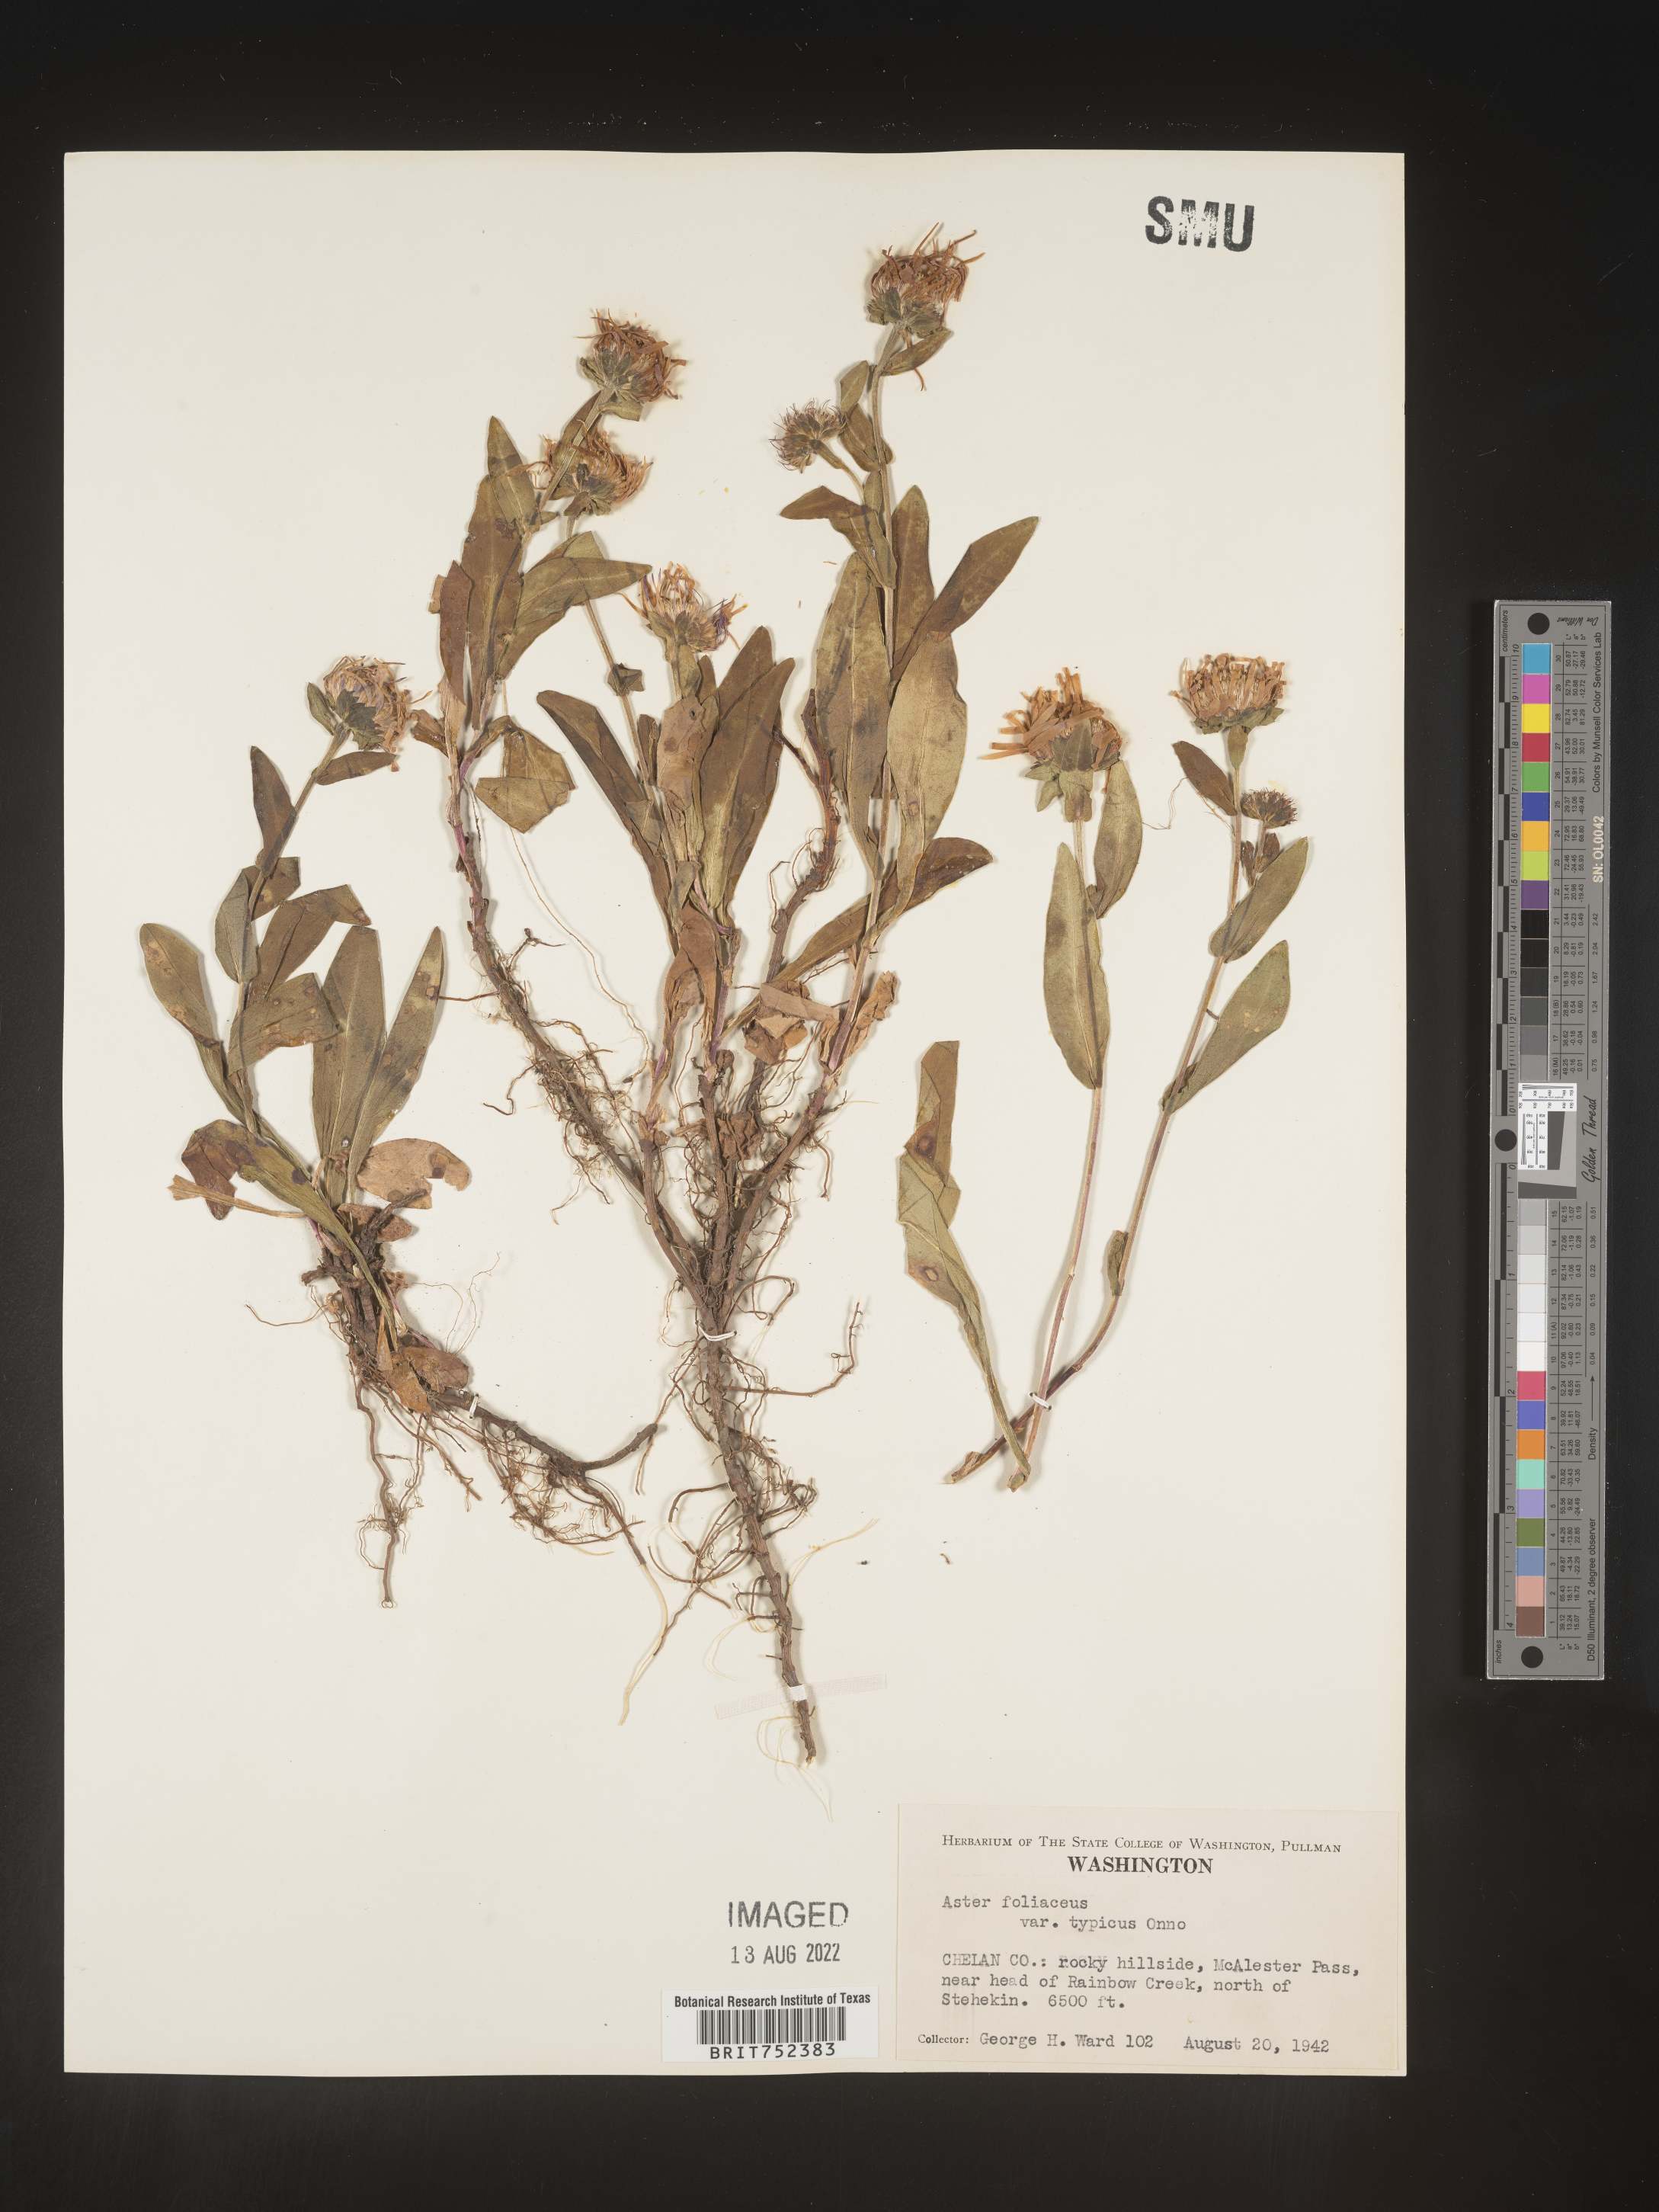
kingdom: Plantae
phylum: Tracheophyta
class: Magnoliopsida
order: Asterales
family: Asteraceae
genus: Symphyotrichum
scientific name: Symphyotrichum foliaceum
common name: Leafy aster
